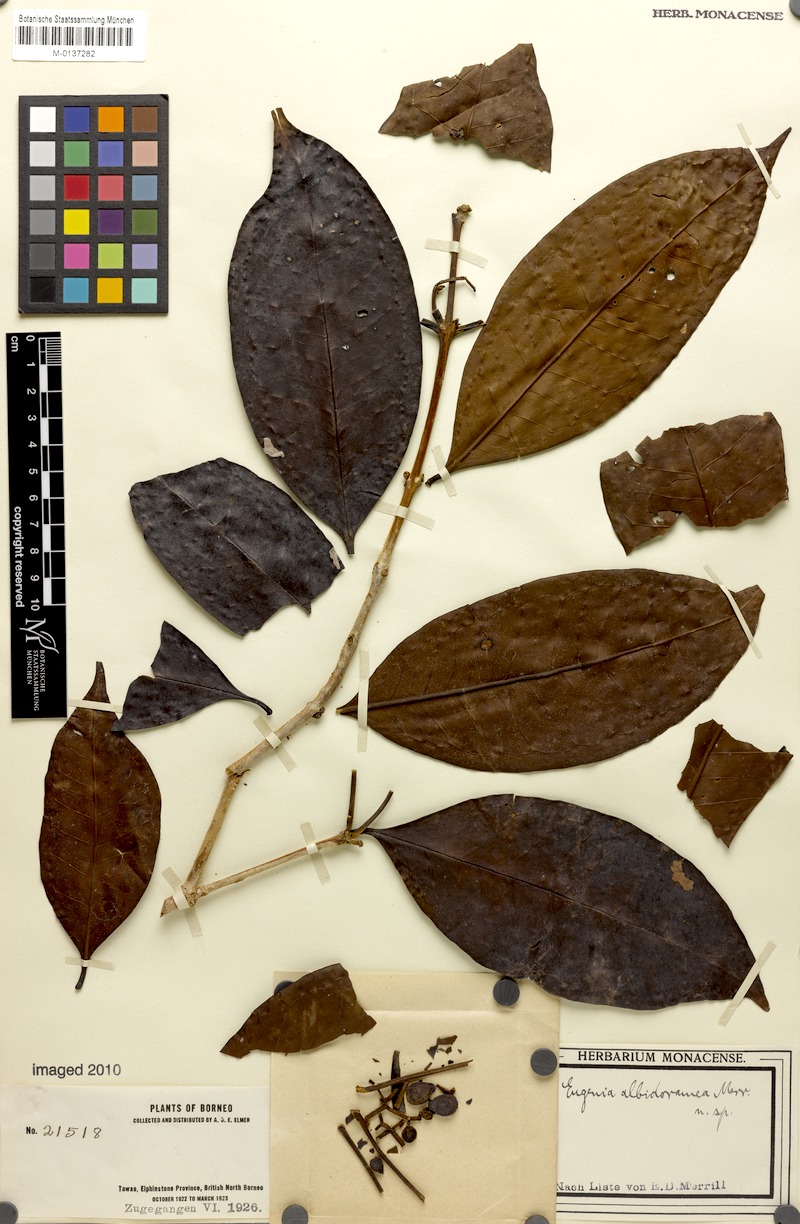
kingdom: Plantae
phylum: Tracheophyta
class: Magnoliopsida
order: Myrtales
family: Myrtaceae
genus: Syzygium
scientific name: Syzygium kunstleri
